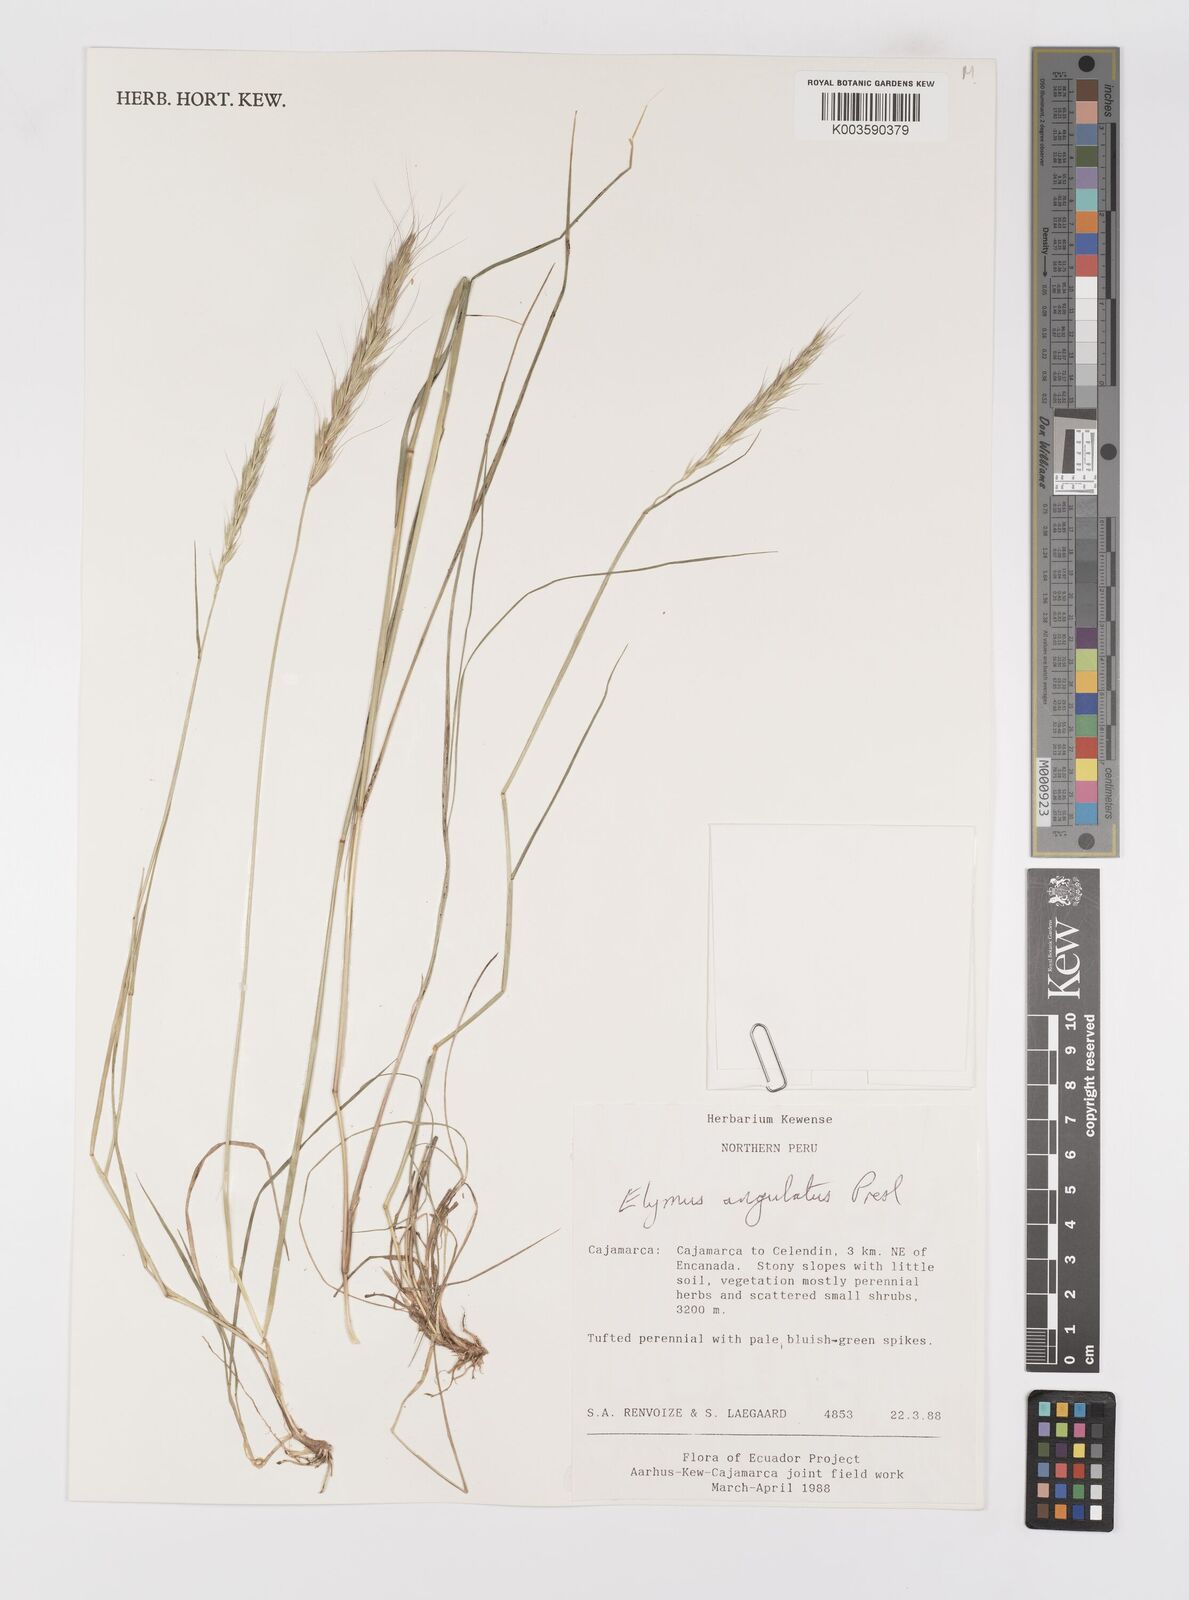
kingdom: Plantae
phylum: Tracheophyta
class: Liliopsida
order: Poales
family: Poaceae
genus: Elymus
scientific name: Elymus angulatus
